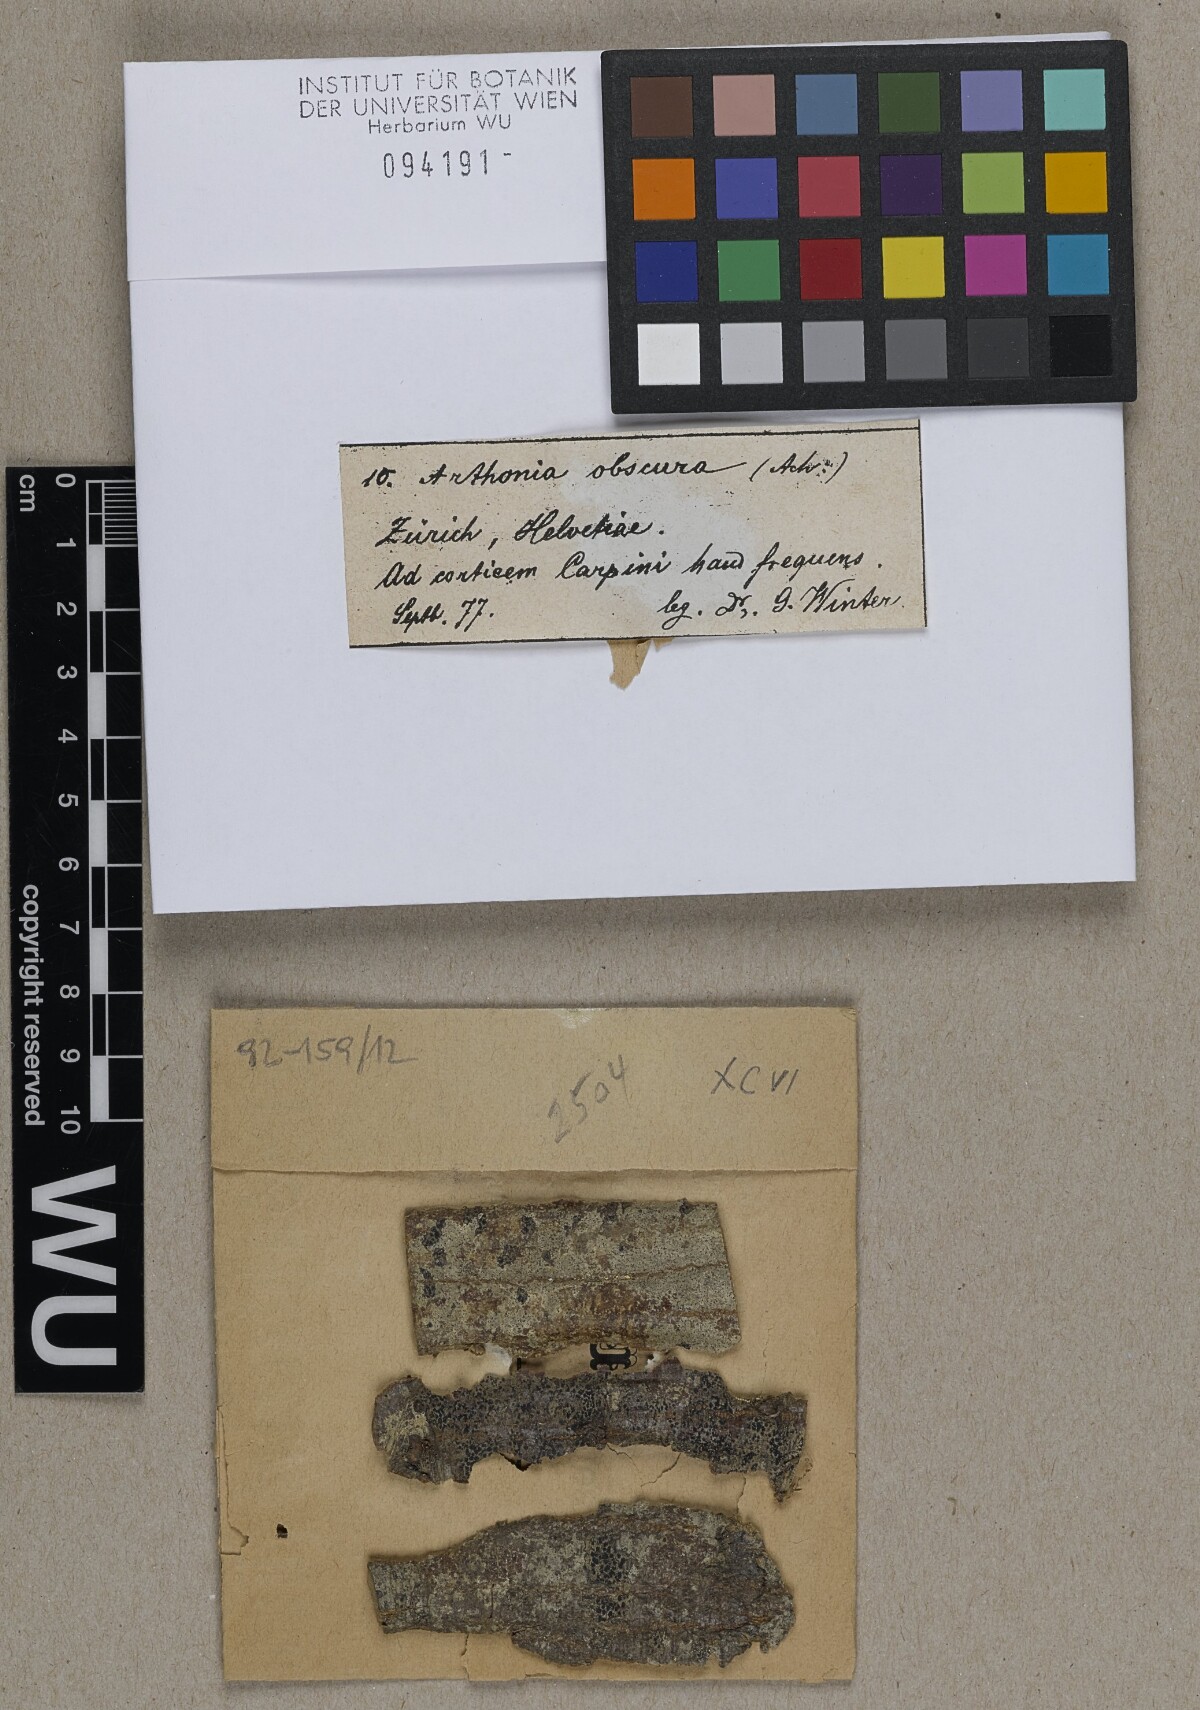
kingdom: Fungi
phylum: Ascomycota
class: Arthoniomycetes
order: Arthoniales
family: Arthoniaceae
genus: Arthonia
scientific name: Arthonia reniformis
